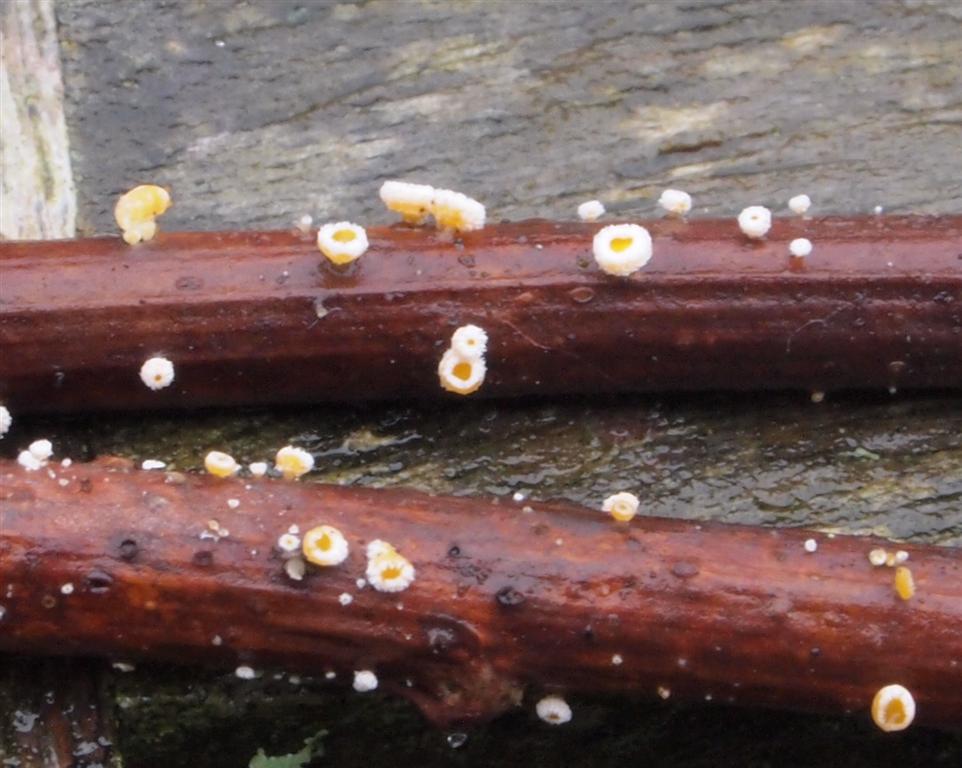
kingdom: Fungi
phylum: Ascomycota
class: Leotiomycetes
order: Helotiales
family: Lachnaceae
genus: Capitotricha
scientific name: Capitotricha bicolor
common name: prægtig frynseskive
